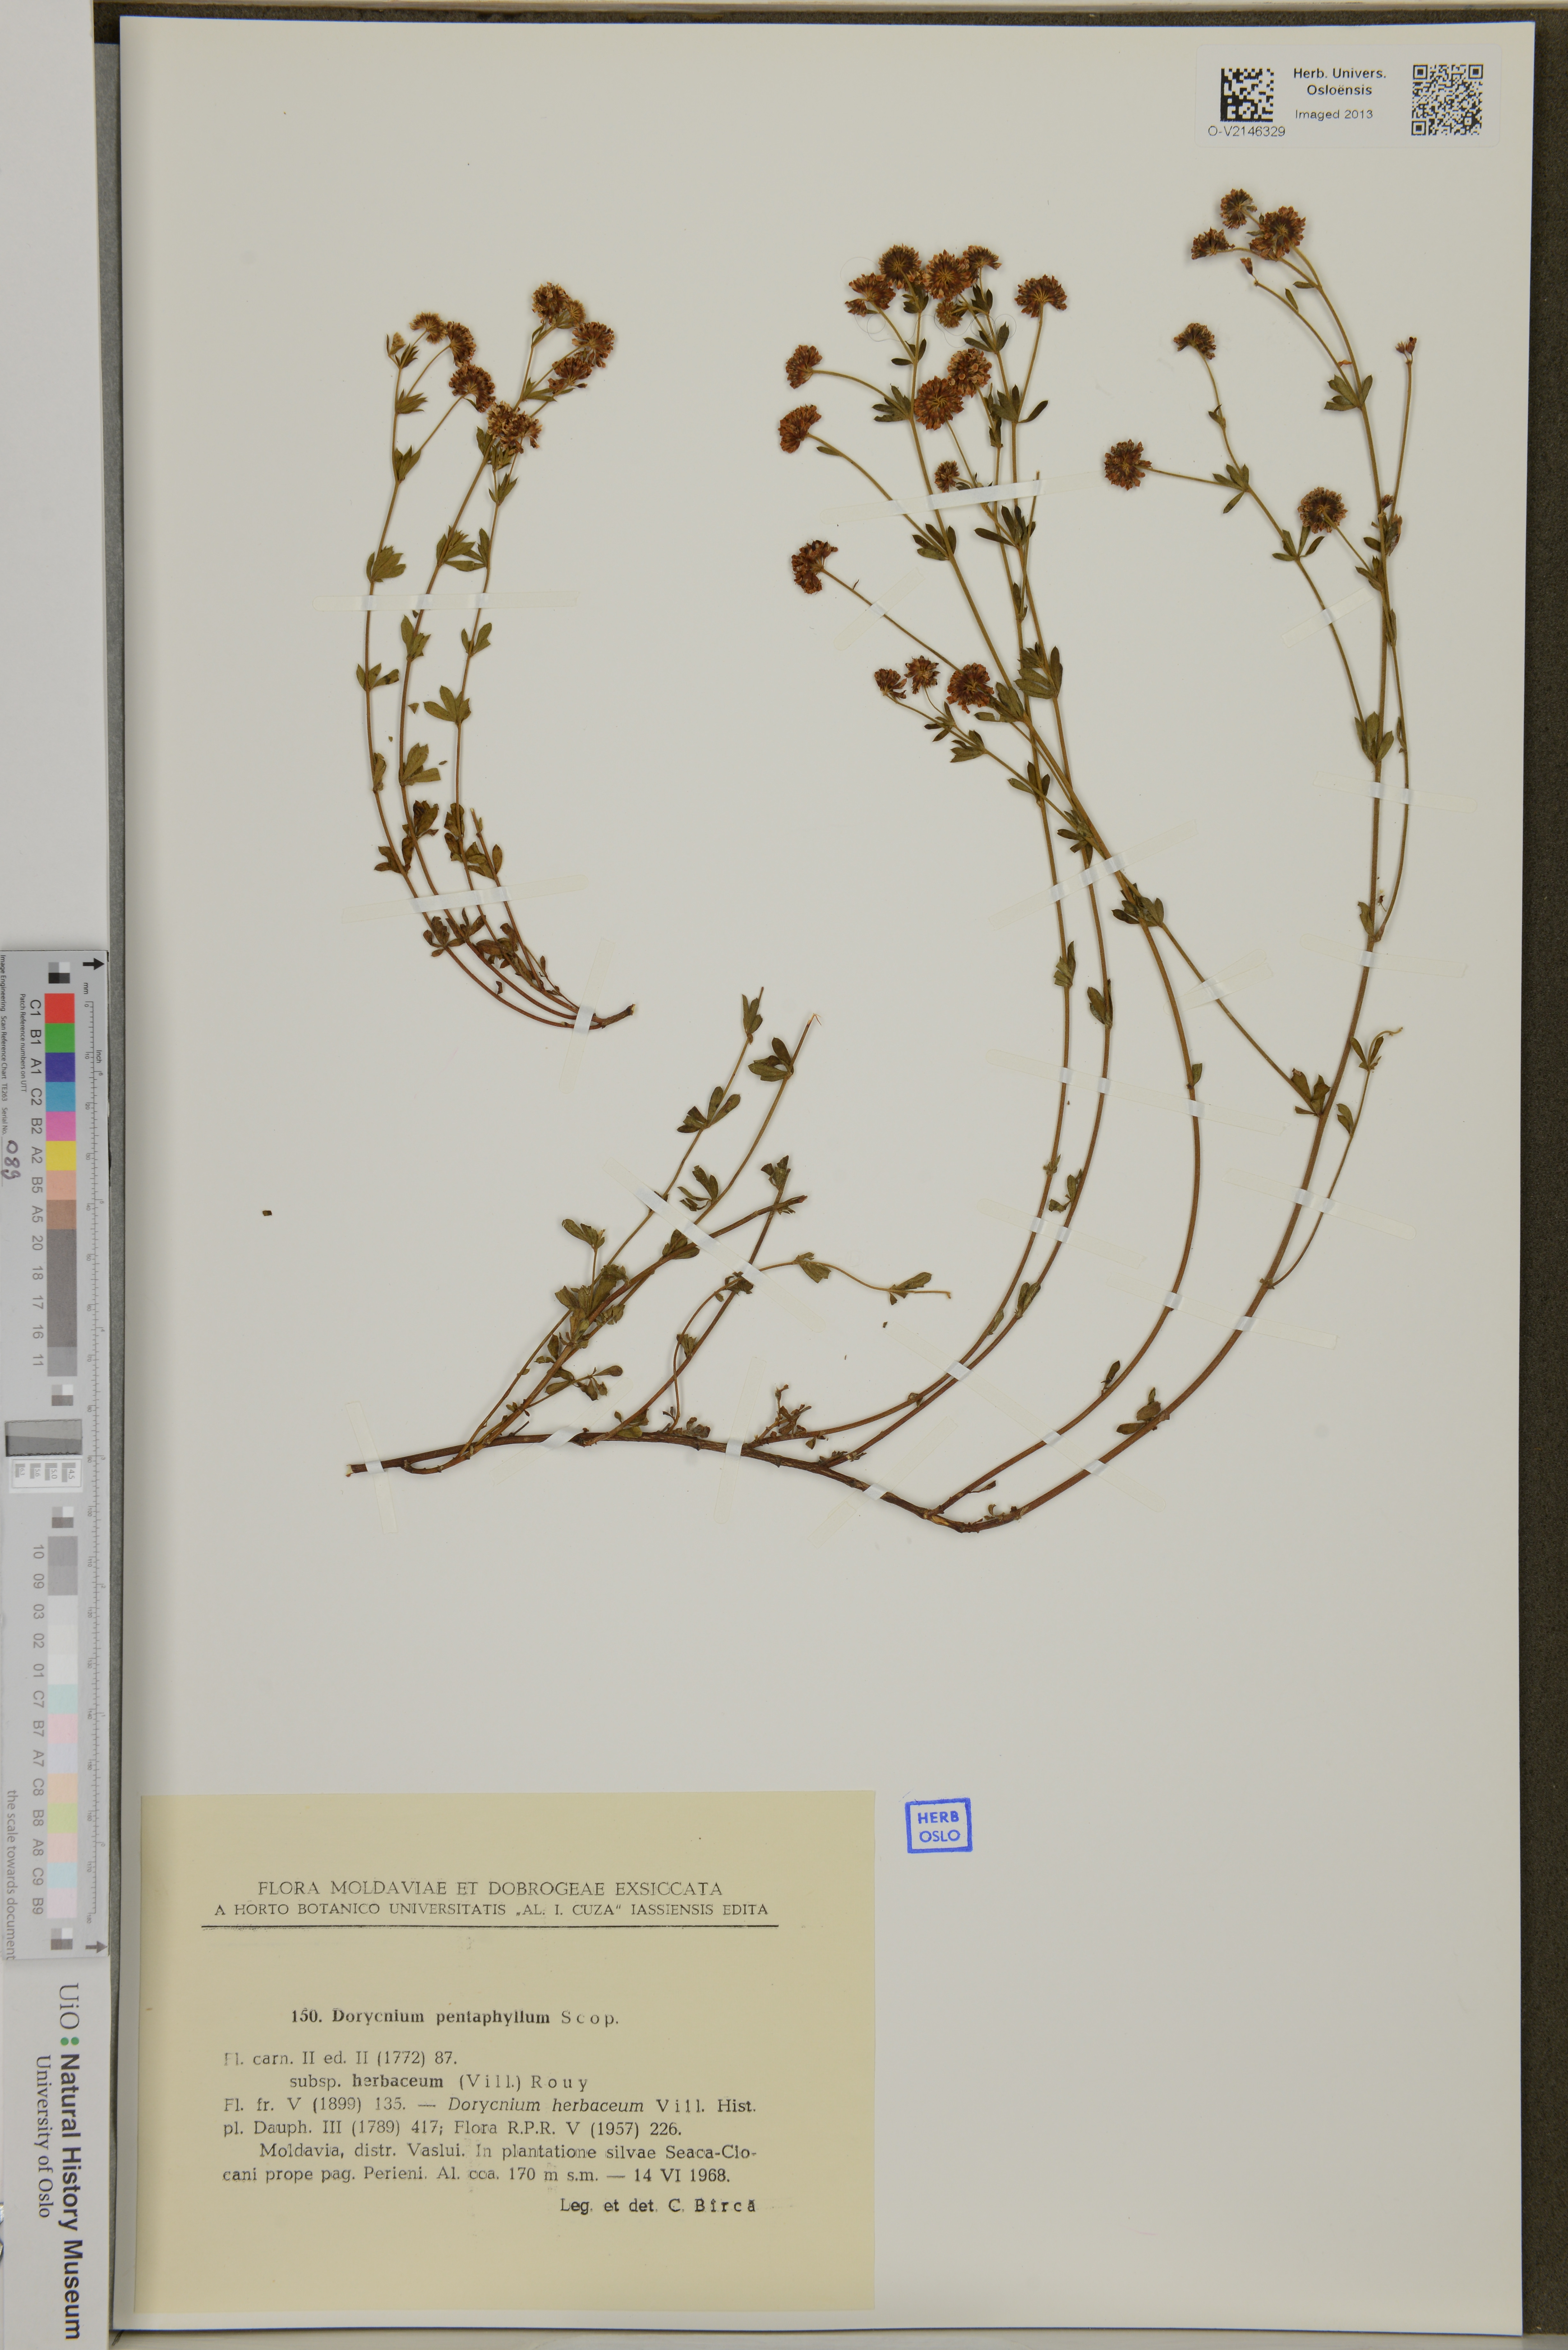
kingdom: Plantae
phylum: Tracheophyta
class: Magnoliopsida
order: Fabales
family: Fabaceae
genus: Lotus
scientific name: Lotus dorycnium
